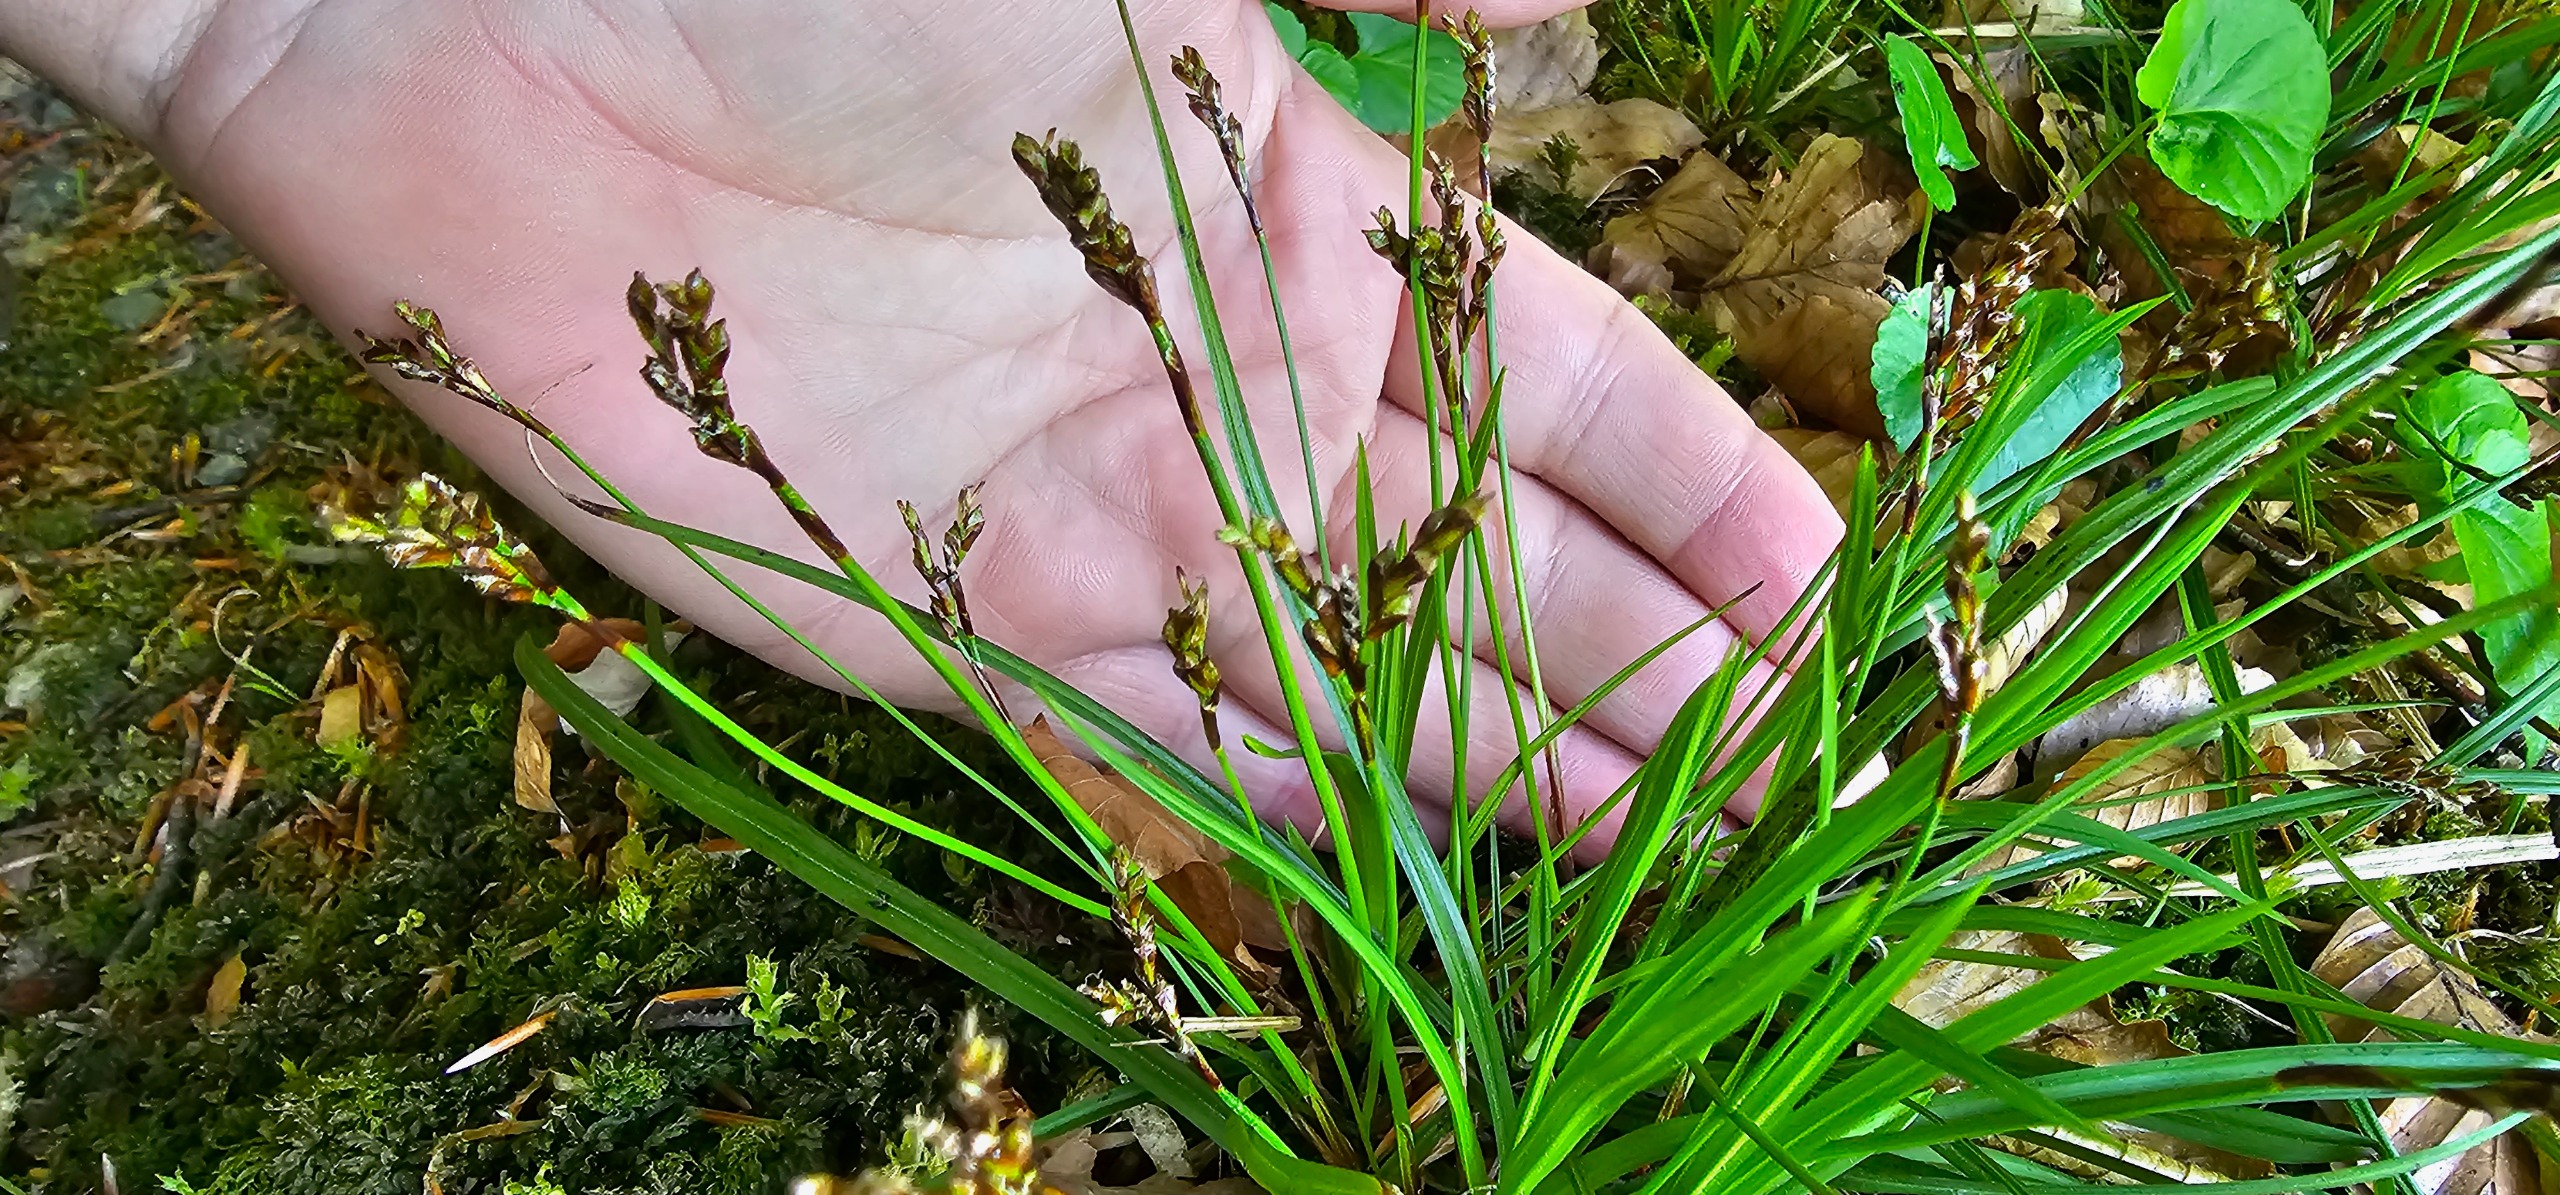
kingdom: Plantae
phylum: Tracheophyta
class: Liliopsida
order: Poales
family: Cyperaceae
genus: Carex
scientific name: Carex digitata
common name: Finger-star
